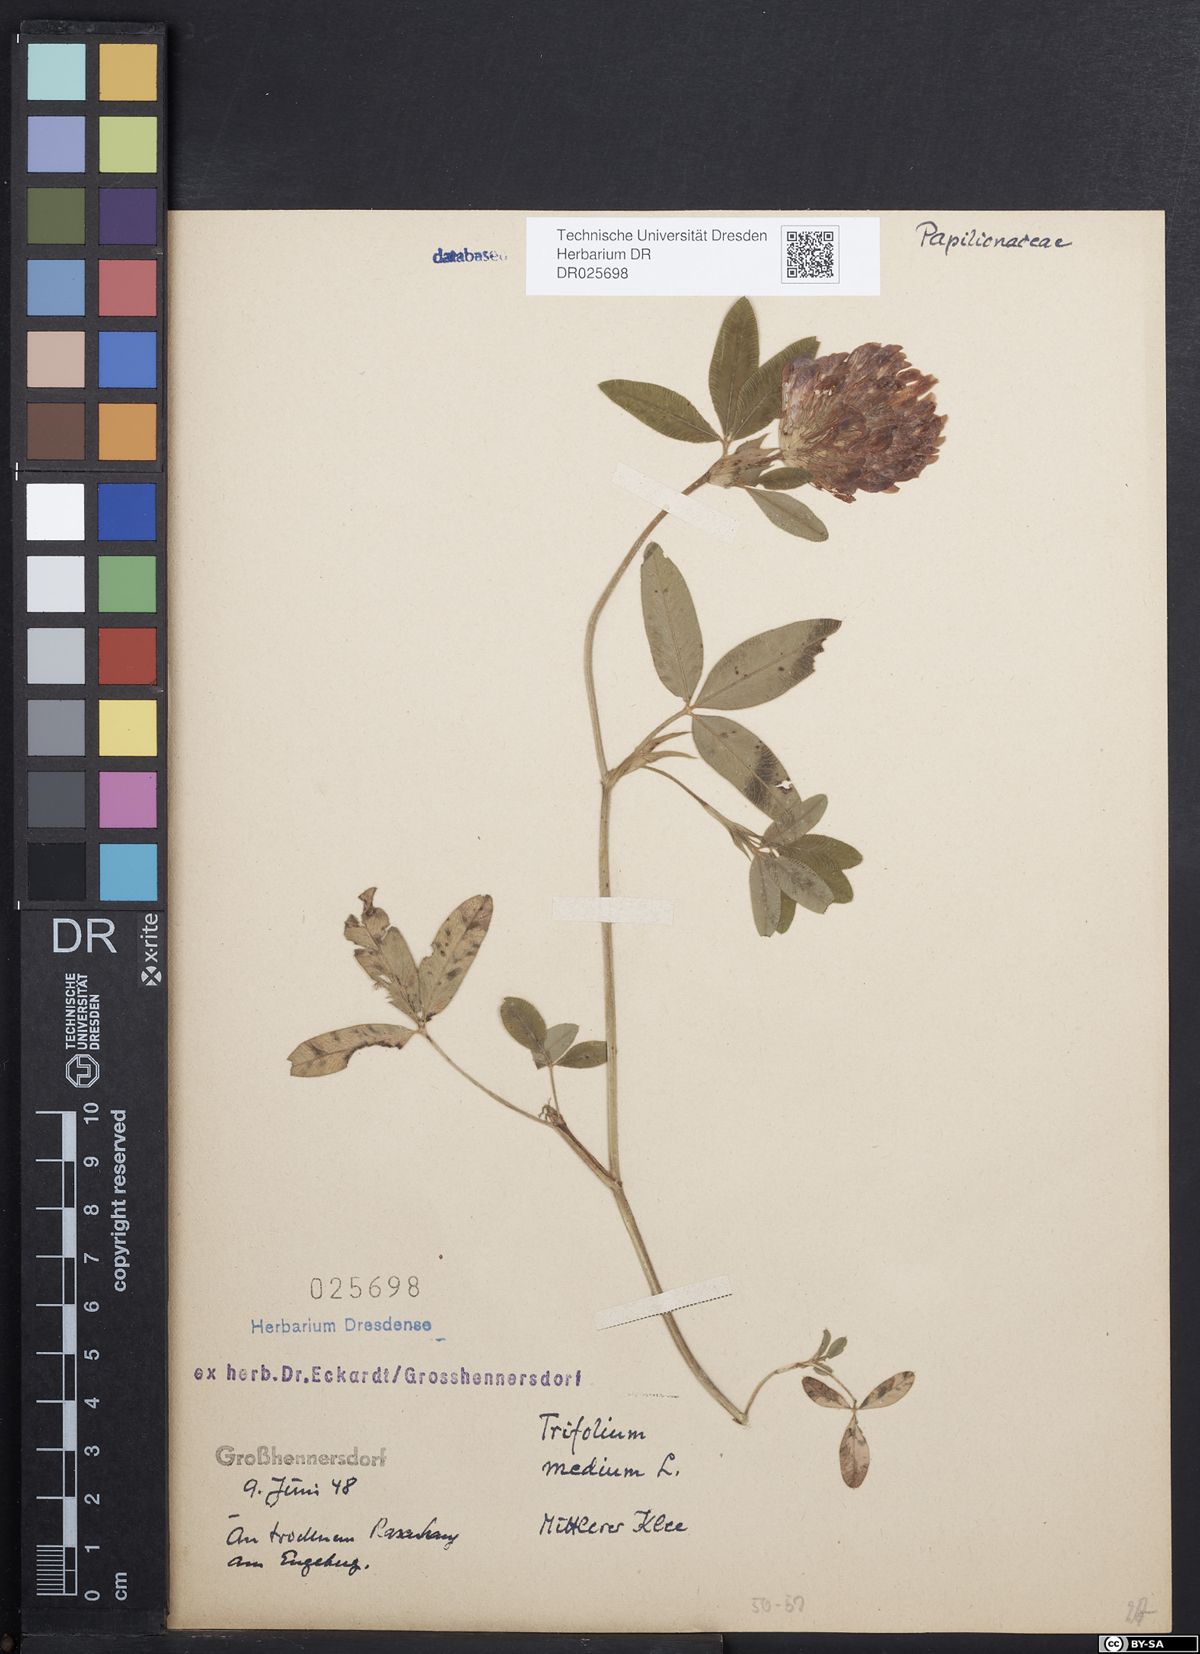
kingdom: Plantae
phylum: Tracheophyta
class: Magnoliopsida
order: Fabales
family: Fabaceae
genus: Trifolium
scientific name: Trifolium medium
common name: Zigzag clover
